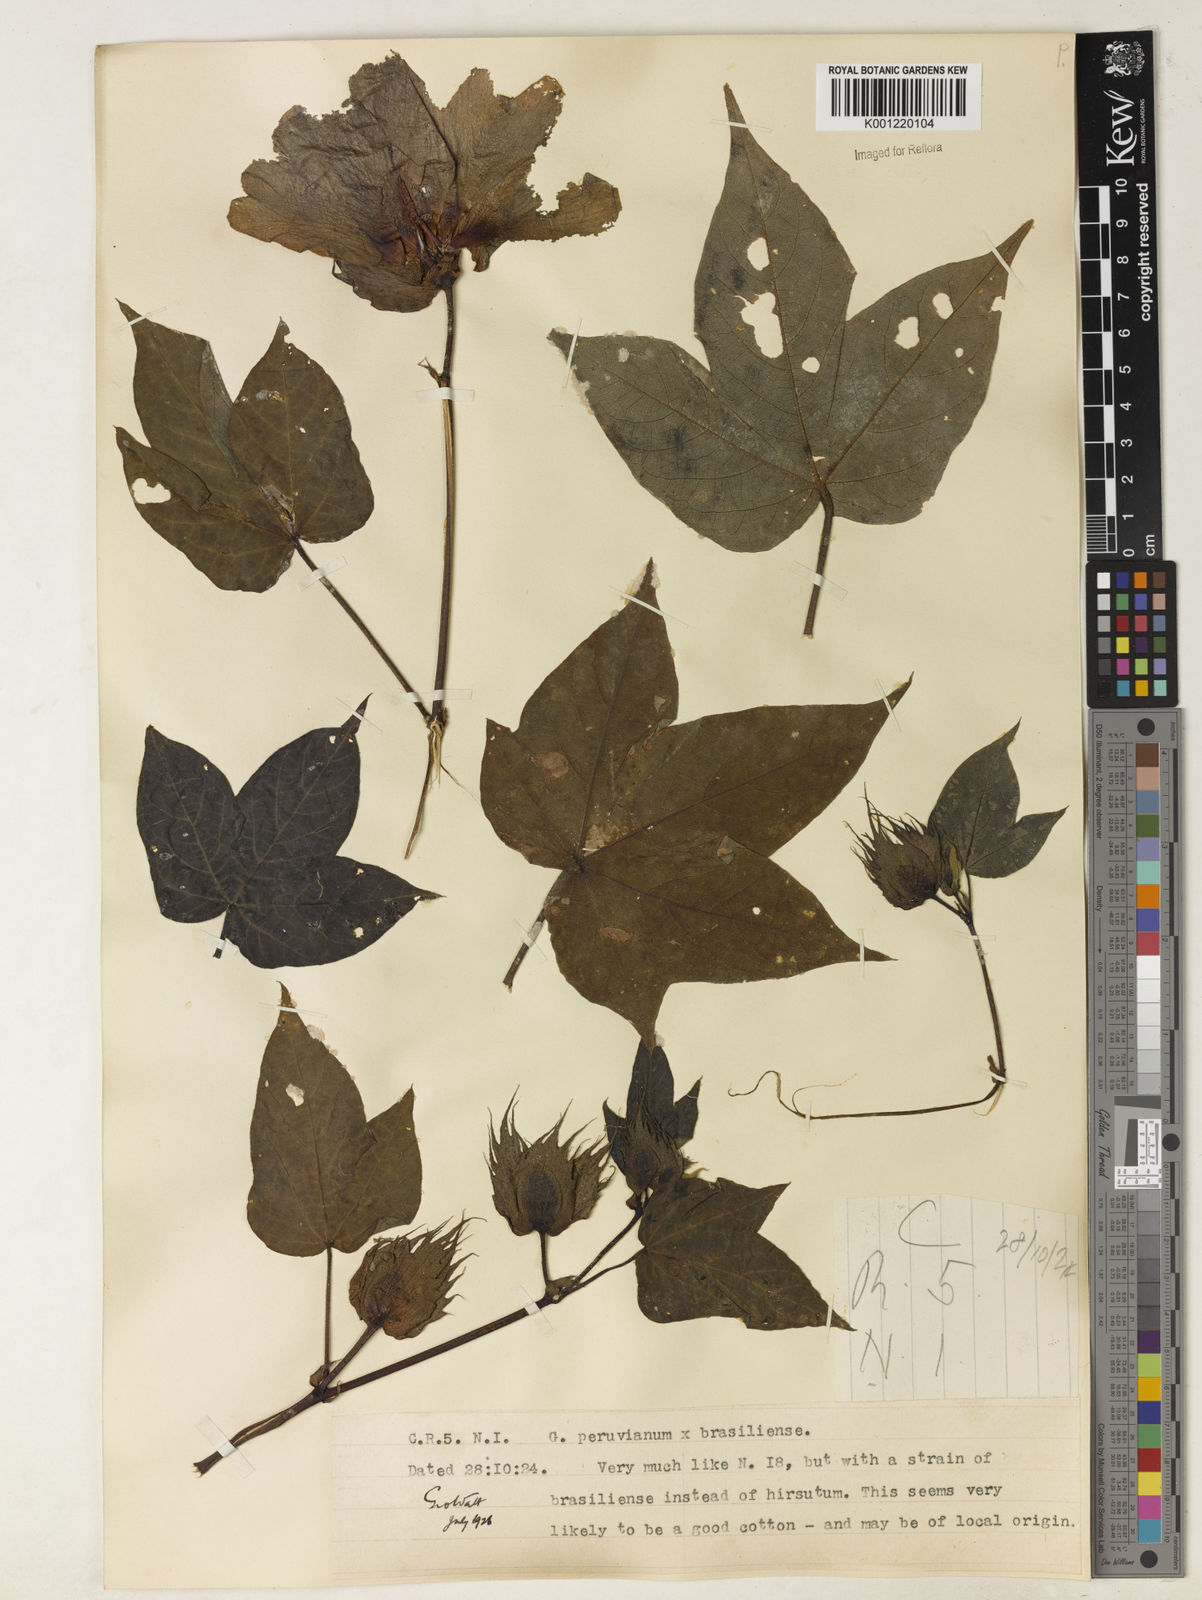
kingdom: Plantae
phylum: Tracheophyta
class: Magnoliopsida
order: Malvales
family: Malvaceae
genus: Gossypium
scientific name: Gossypium
